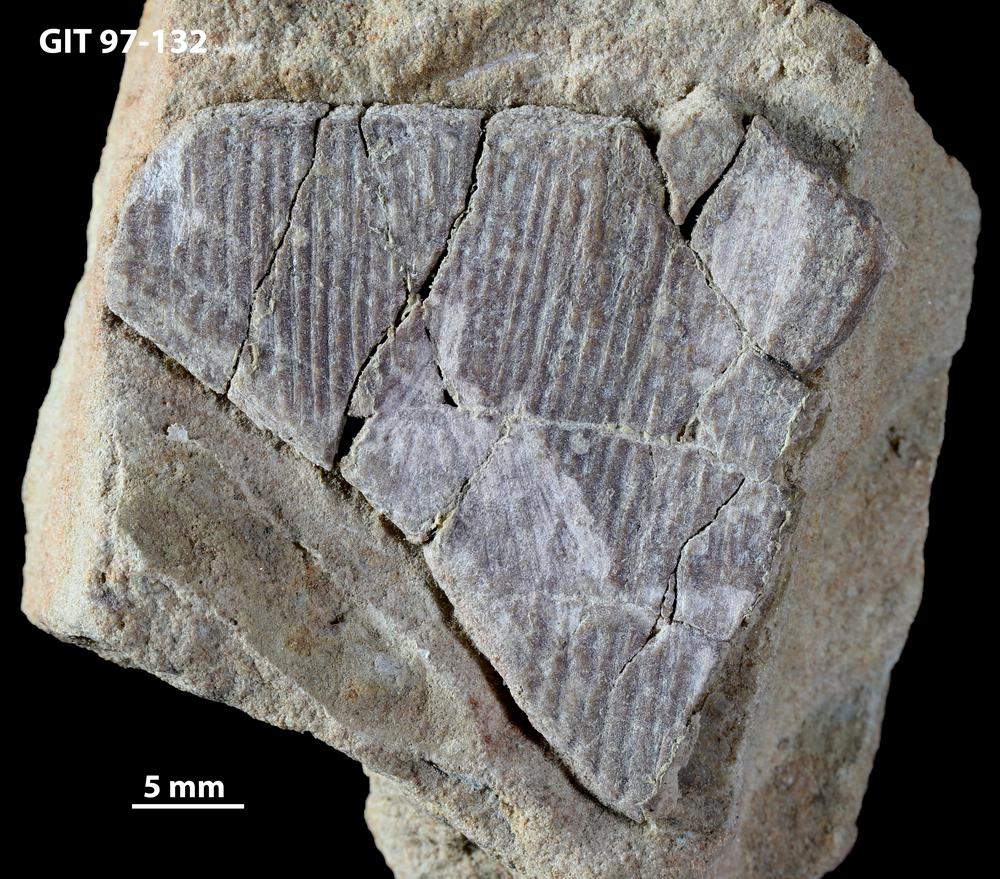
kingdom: Animalia
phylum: Chordata
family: Holonematidae
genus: Holonema
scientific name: Holonema
